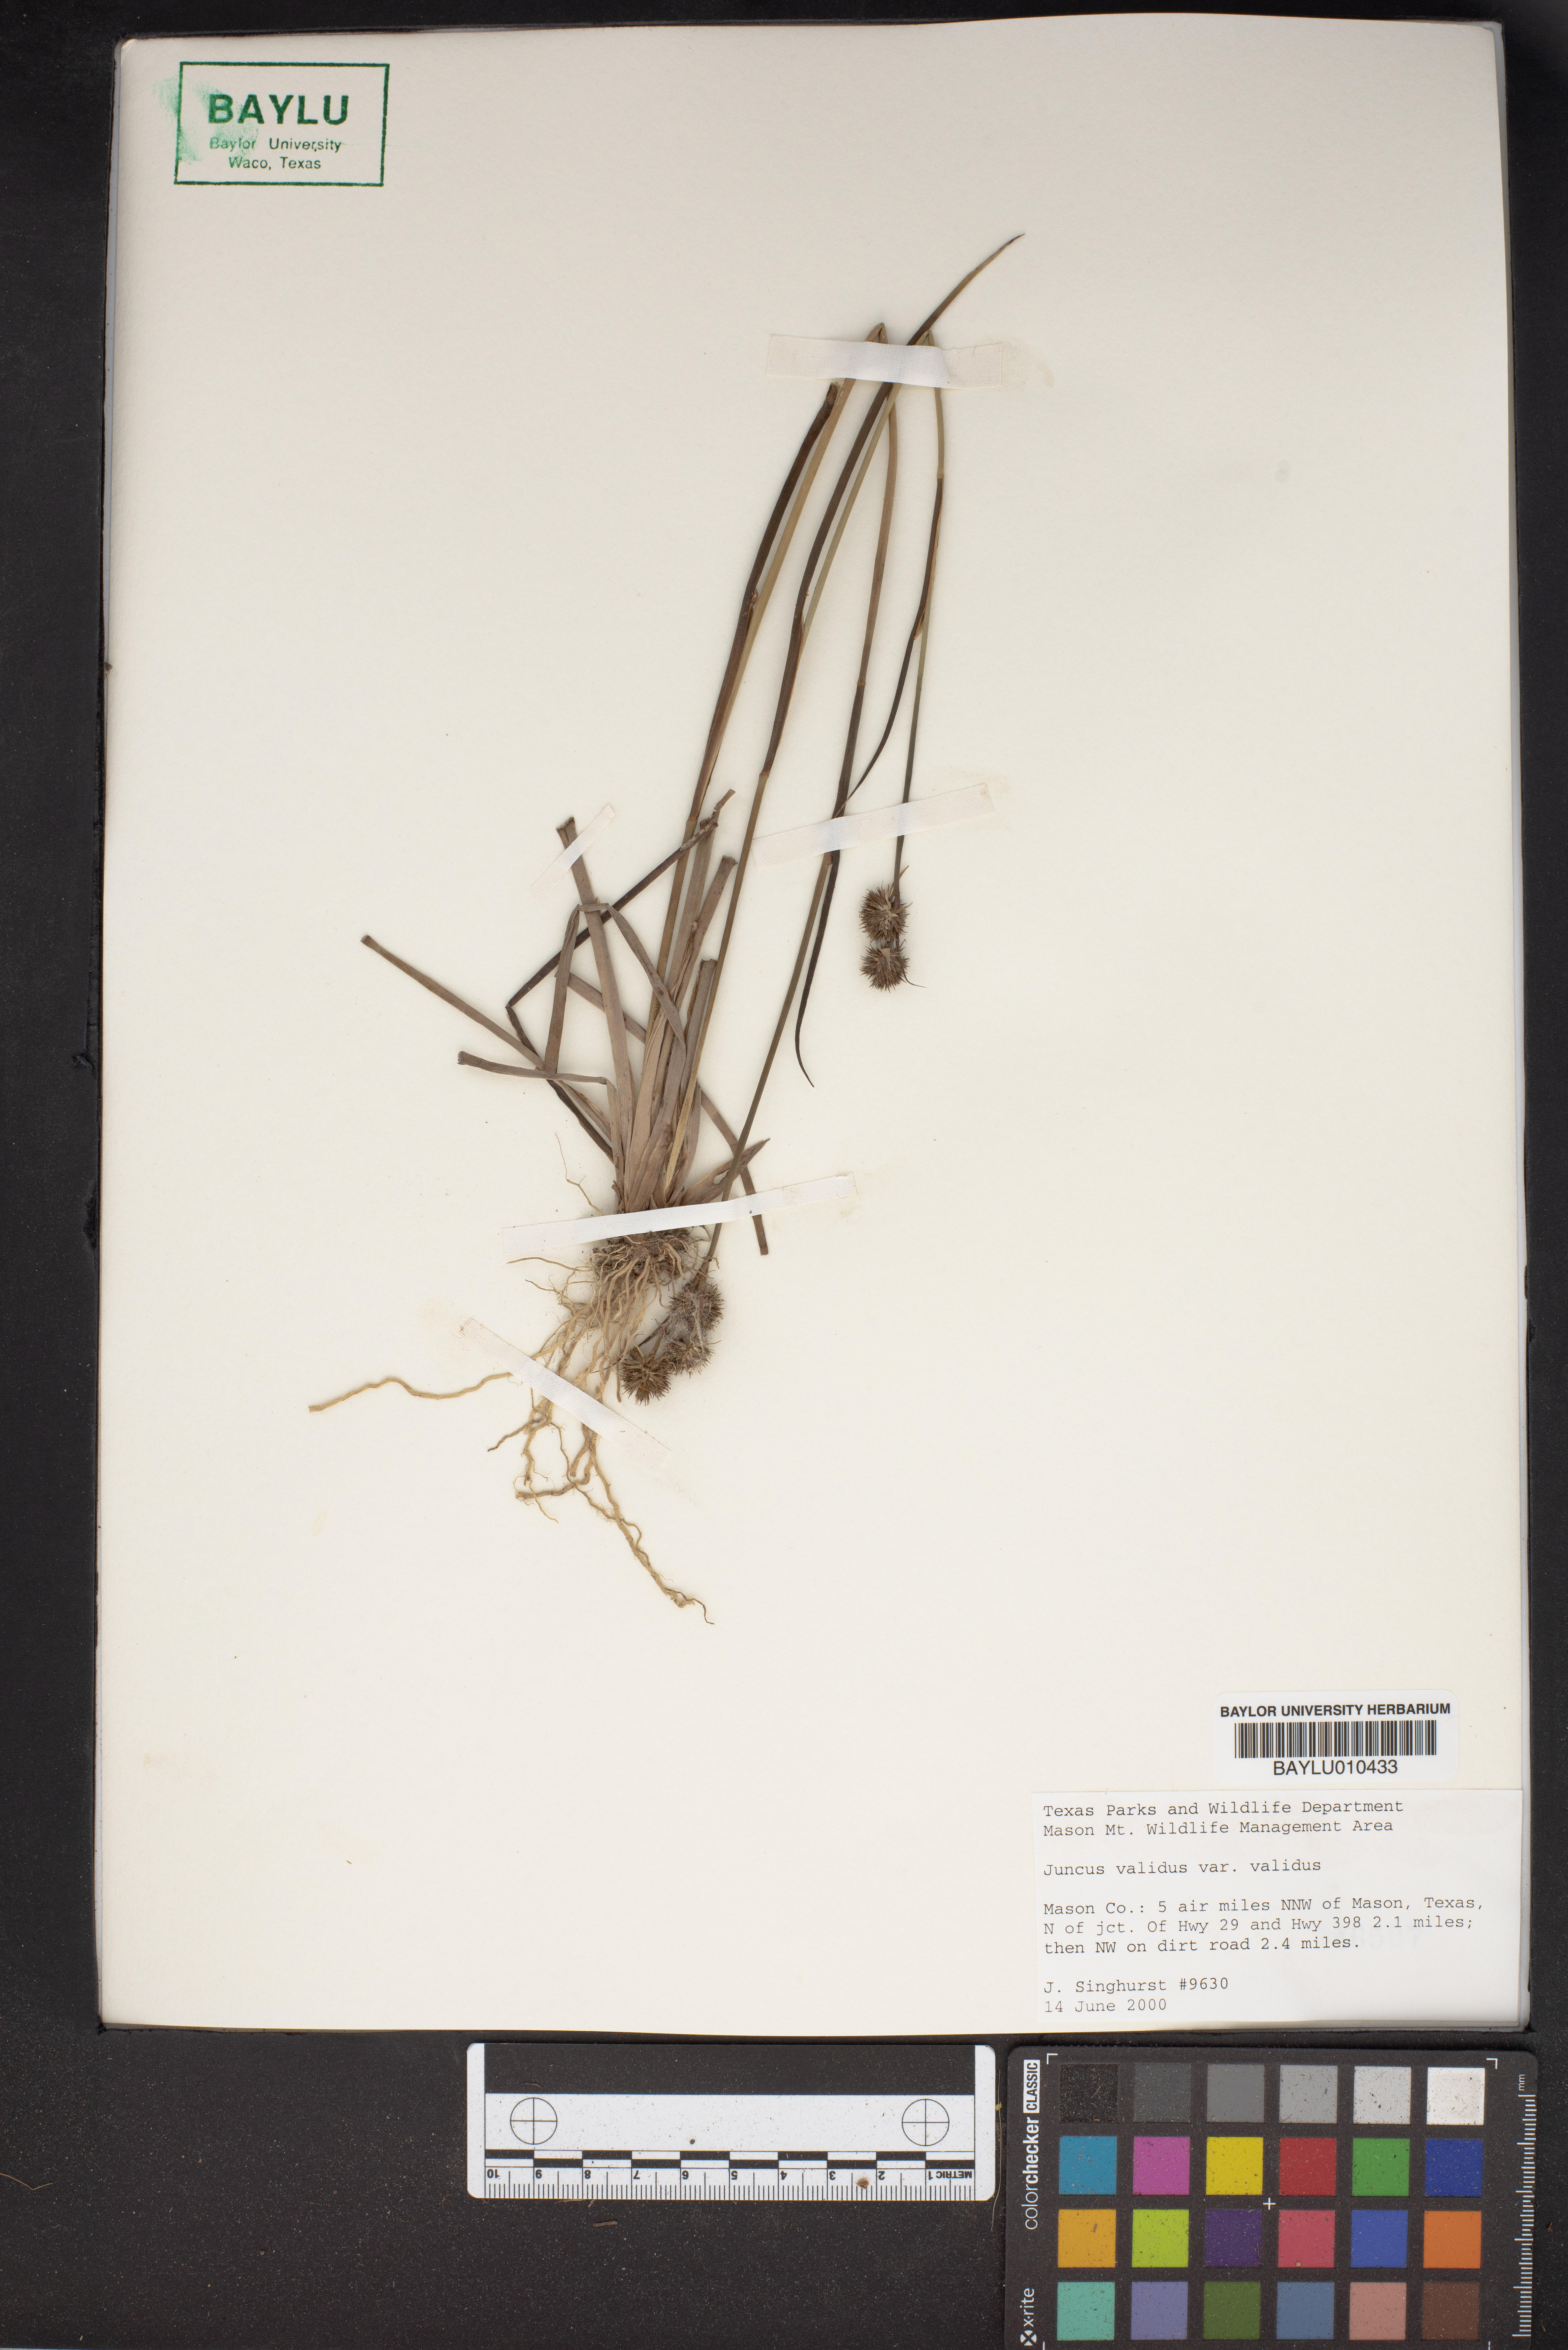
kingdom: Plantae
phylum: Tracheophyta
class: Liliopsida
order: Poales
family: Juncaceae
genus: Juncus
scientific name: Juncus validus
